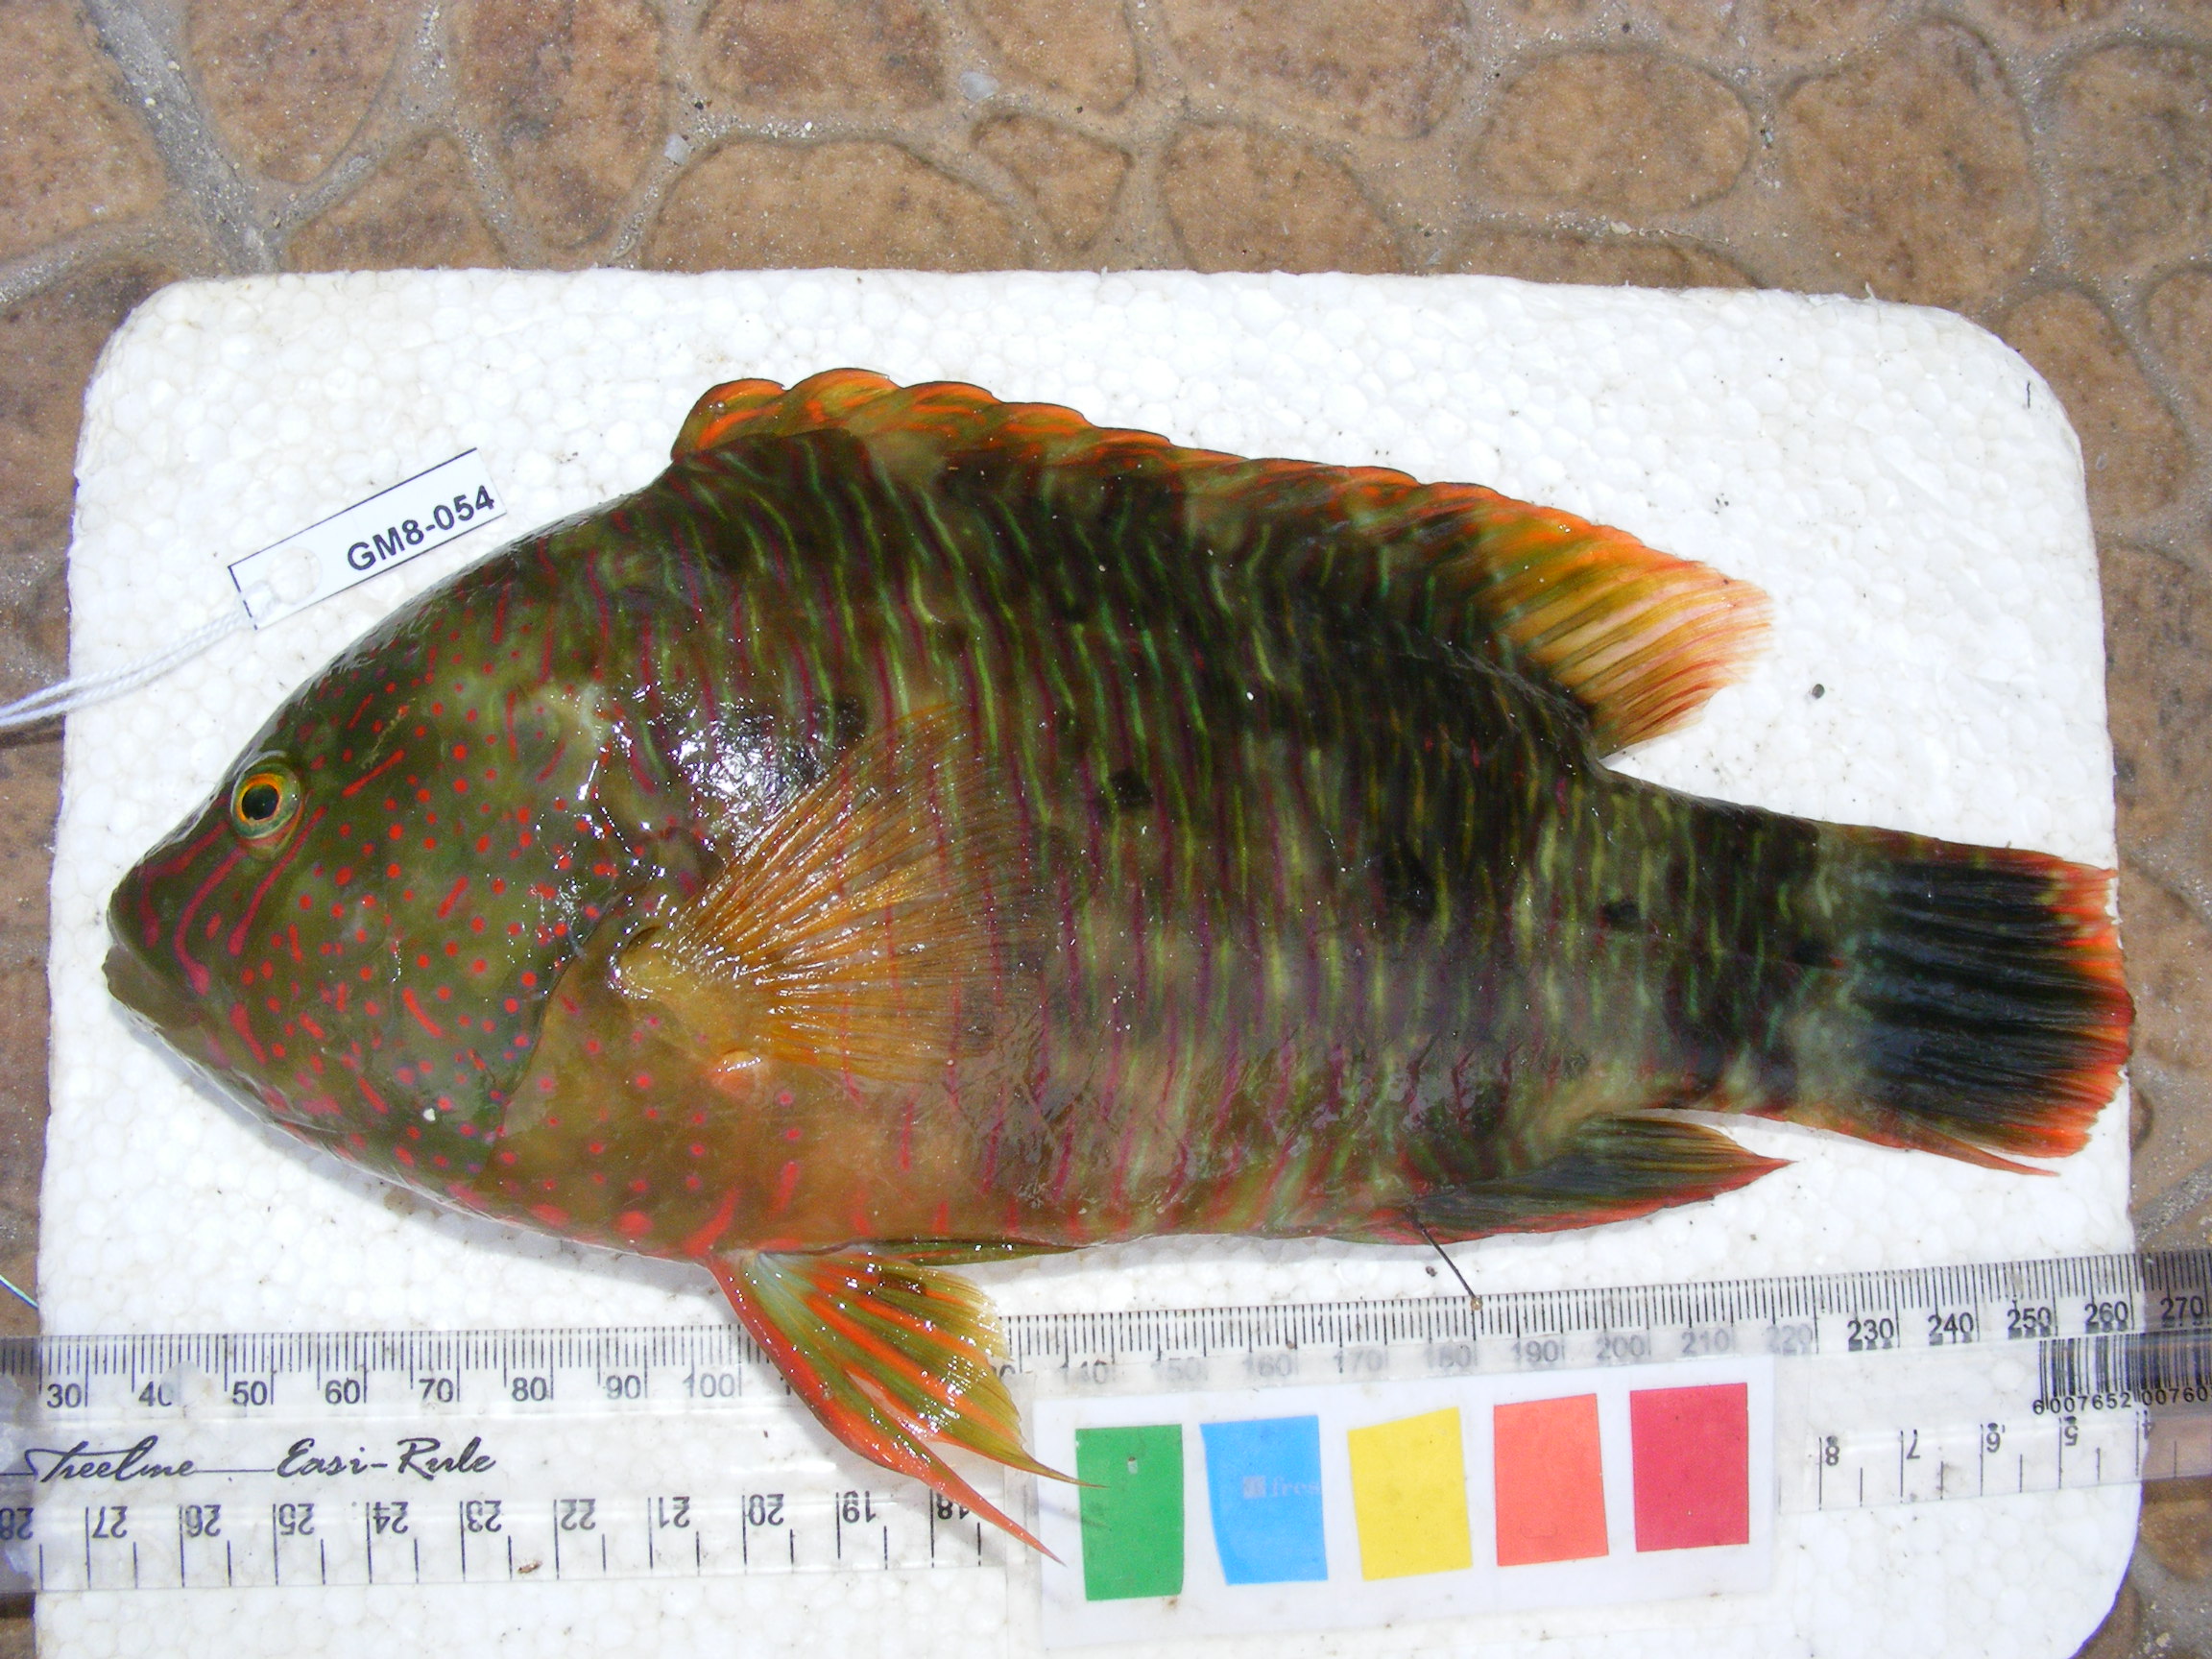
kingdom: Animalia
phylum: Chordata
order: Perciformes
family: Labridae
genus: Cheilinus
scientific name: Cheilinus trilobatus
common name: Tripletail maori wrasse
